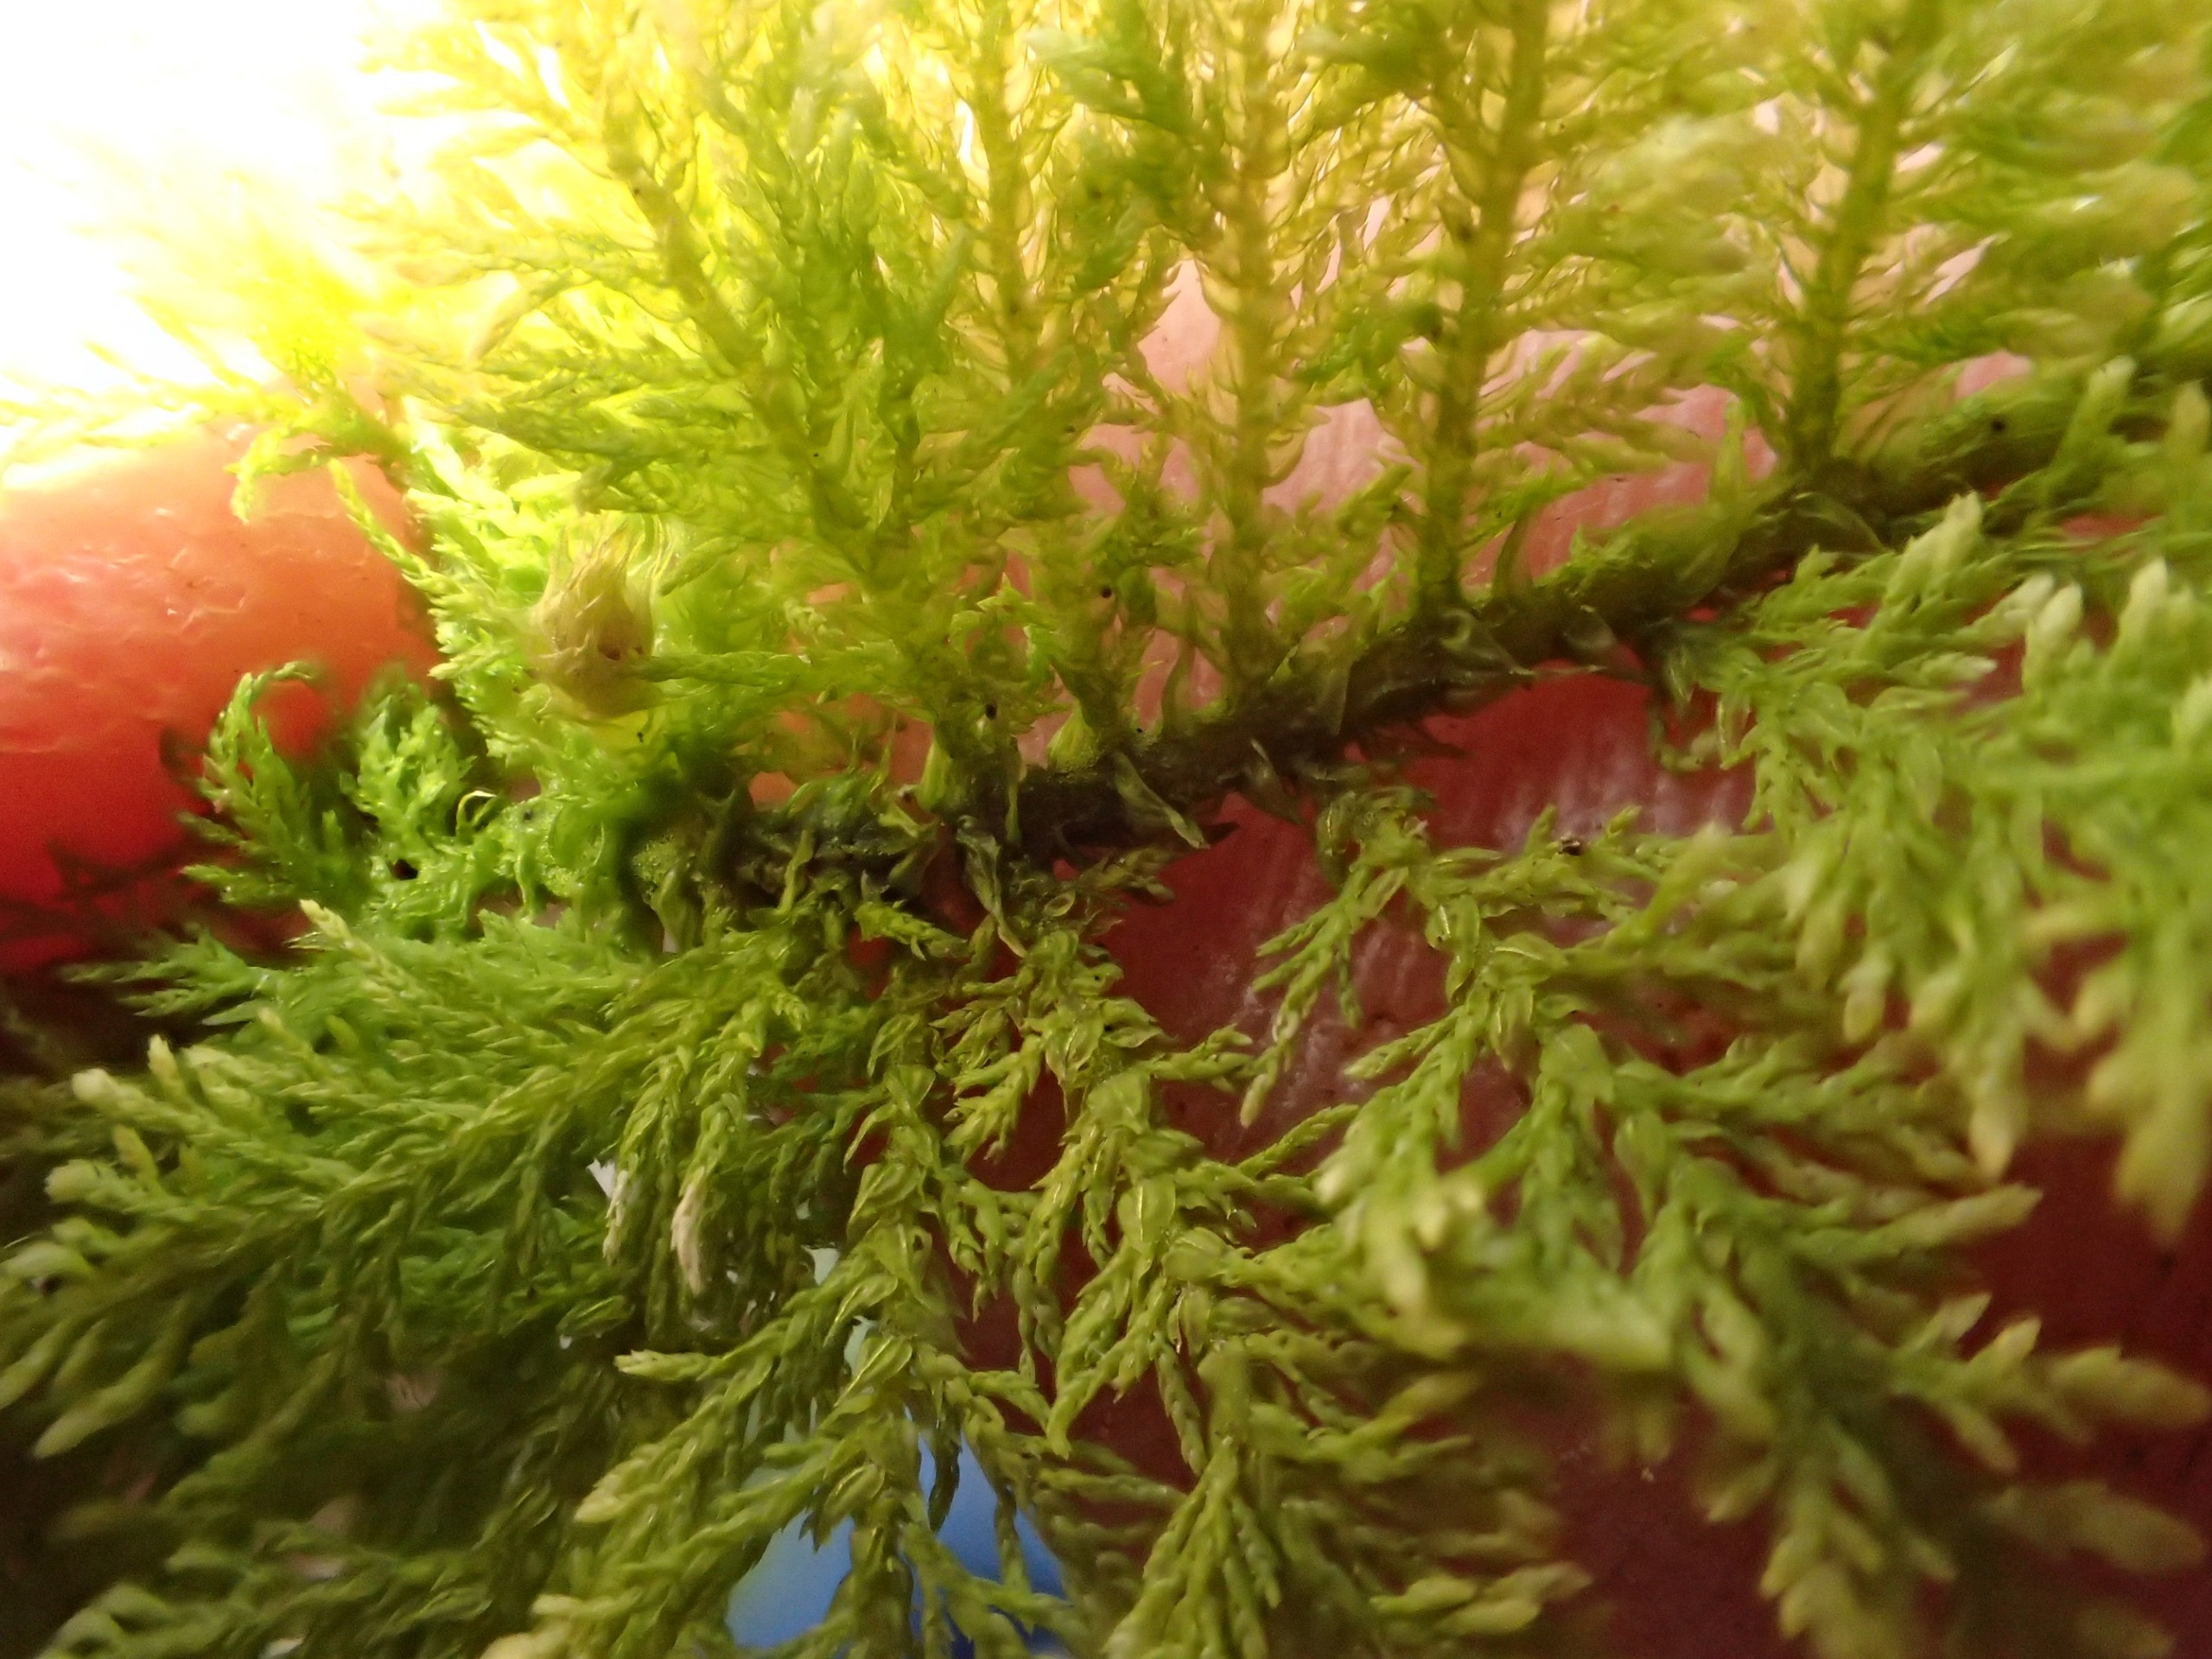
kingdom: Plantae
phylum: Bryophyta
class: Bryopsida
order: Hypnales
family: Thuidiaceae
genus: Thuidium
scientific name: Thuidium tamariscinum
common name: Pryd-bregnemos
